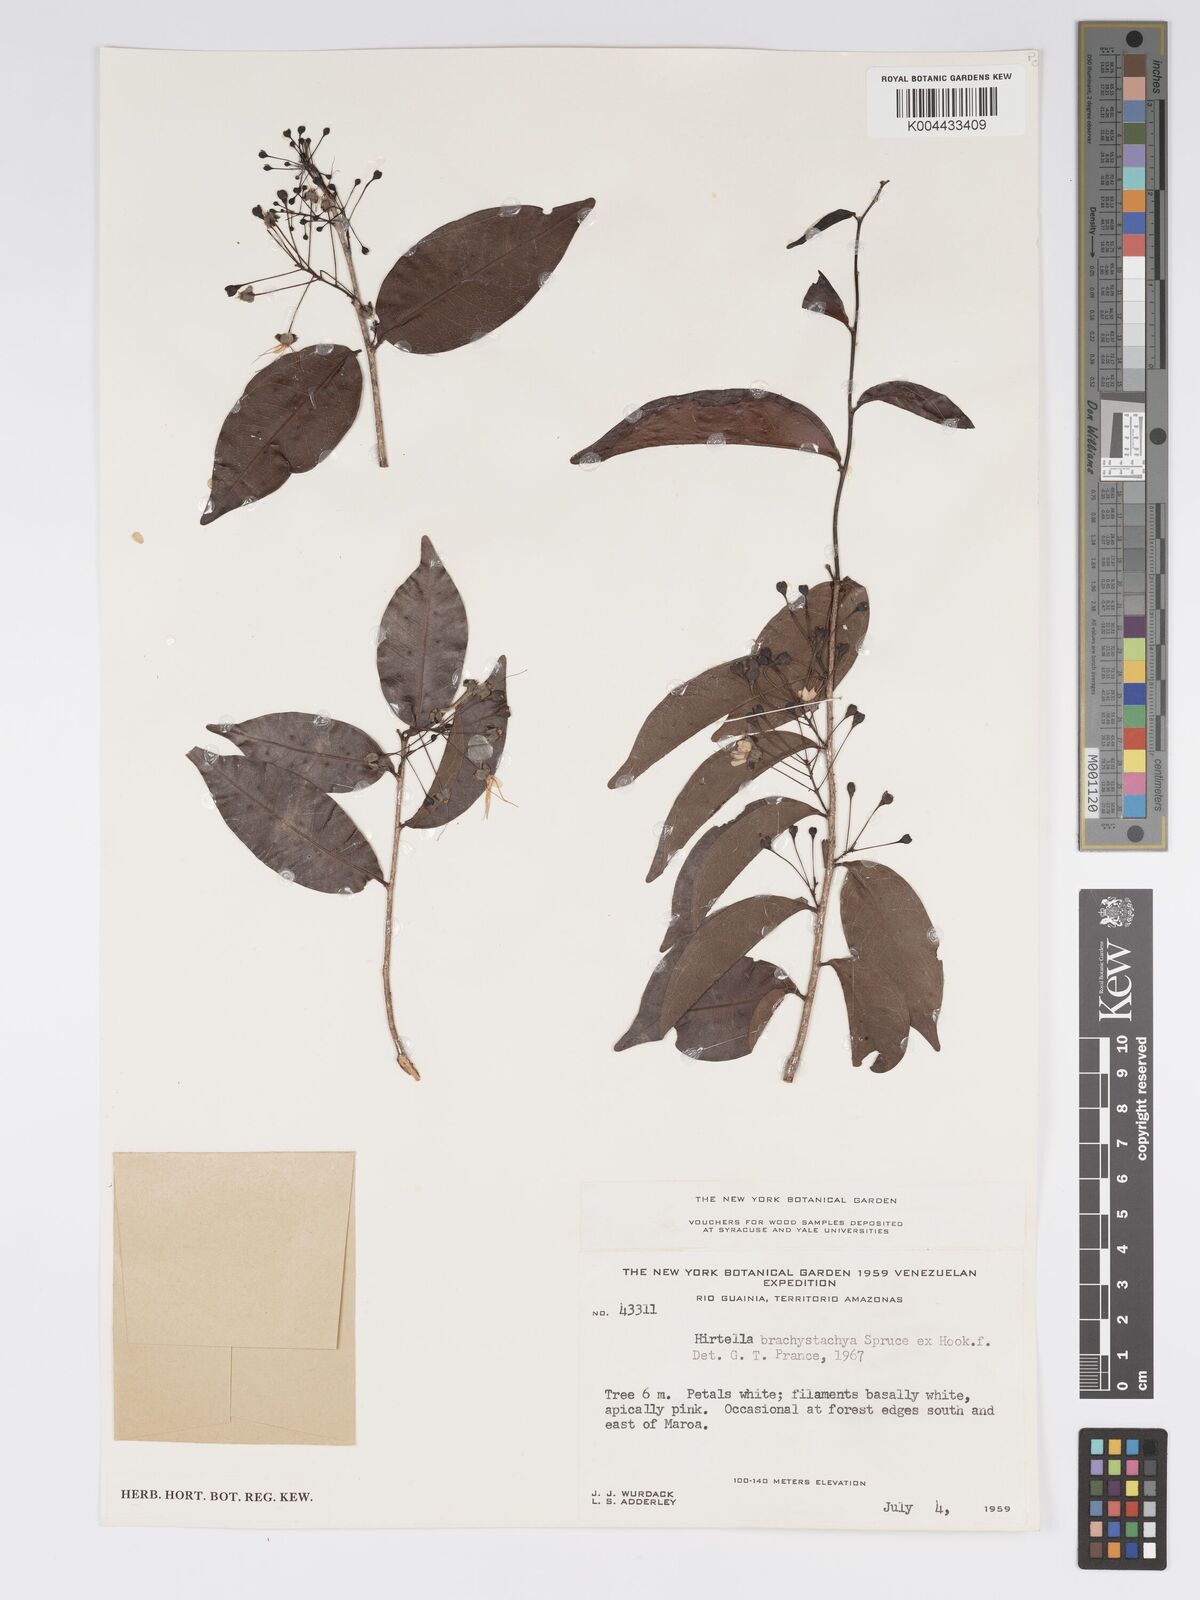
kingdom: Plantae
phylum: Tracheophyta
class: Magnoliopsida
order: Malpighiales
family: Chrysobalanaceae
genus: Hirtella
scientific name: Hirtella brachystachya
